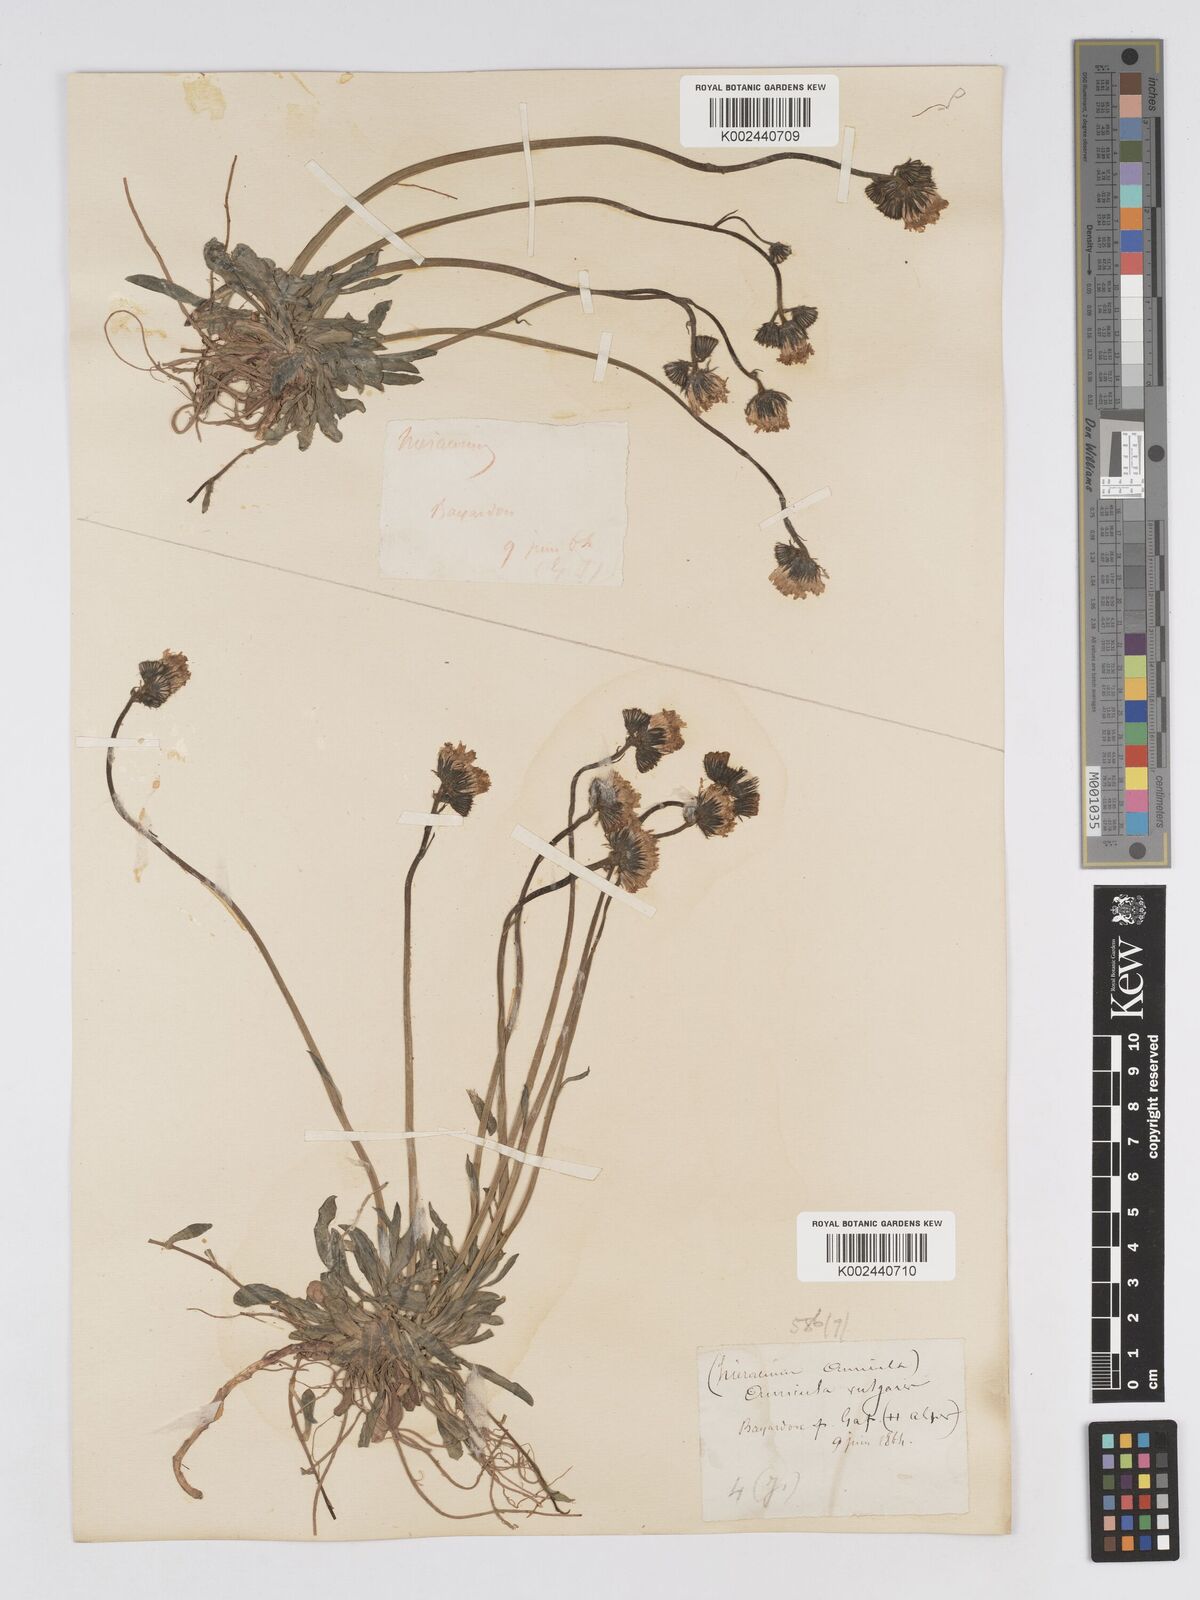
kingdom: Plantae
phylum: Tracheophyta
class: Magnoliopsida
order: Asterales
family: Asteraceae
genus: Pilosella
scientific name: Pilosella floribunda
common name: Glaucous hawkweed
